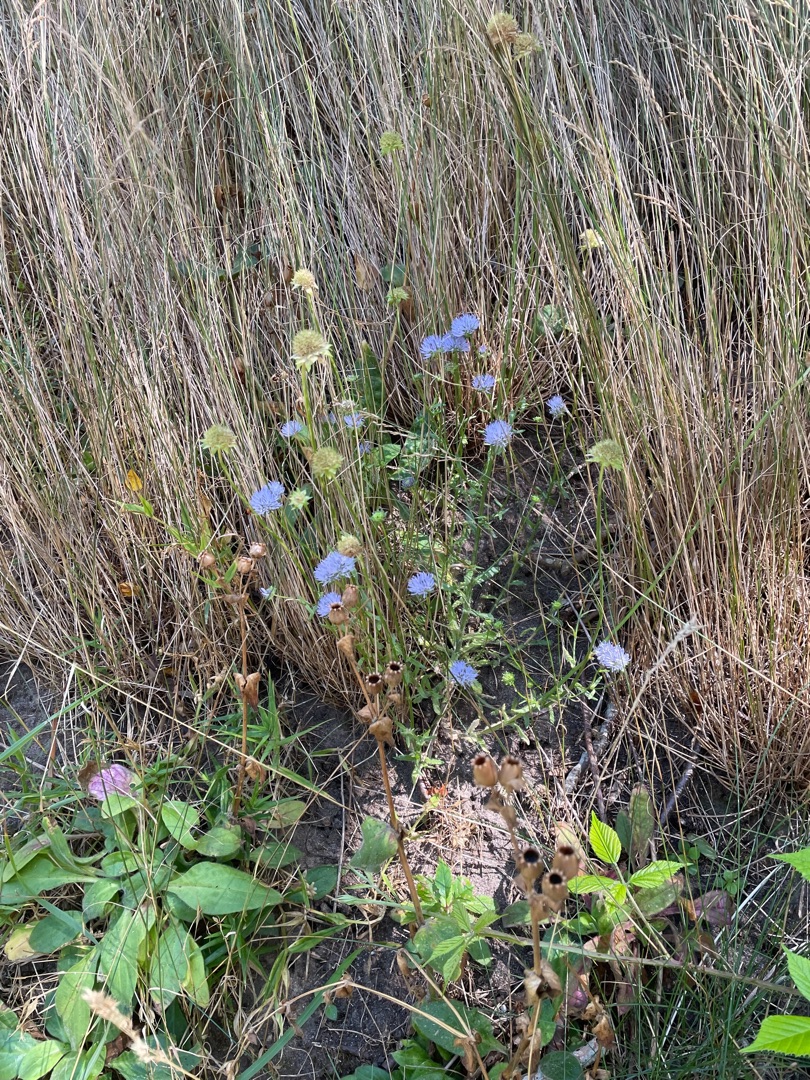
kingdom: Plantae
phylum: Tracheophyta
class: Magnoliopsida
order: Asterales
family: Campanulaceae
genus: Jasione
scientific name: Jasione montana
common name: Blåmunke
